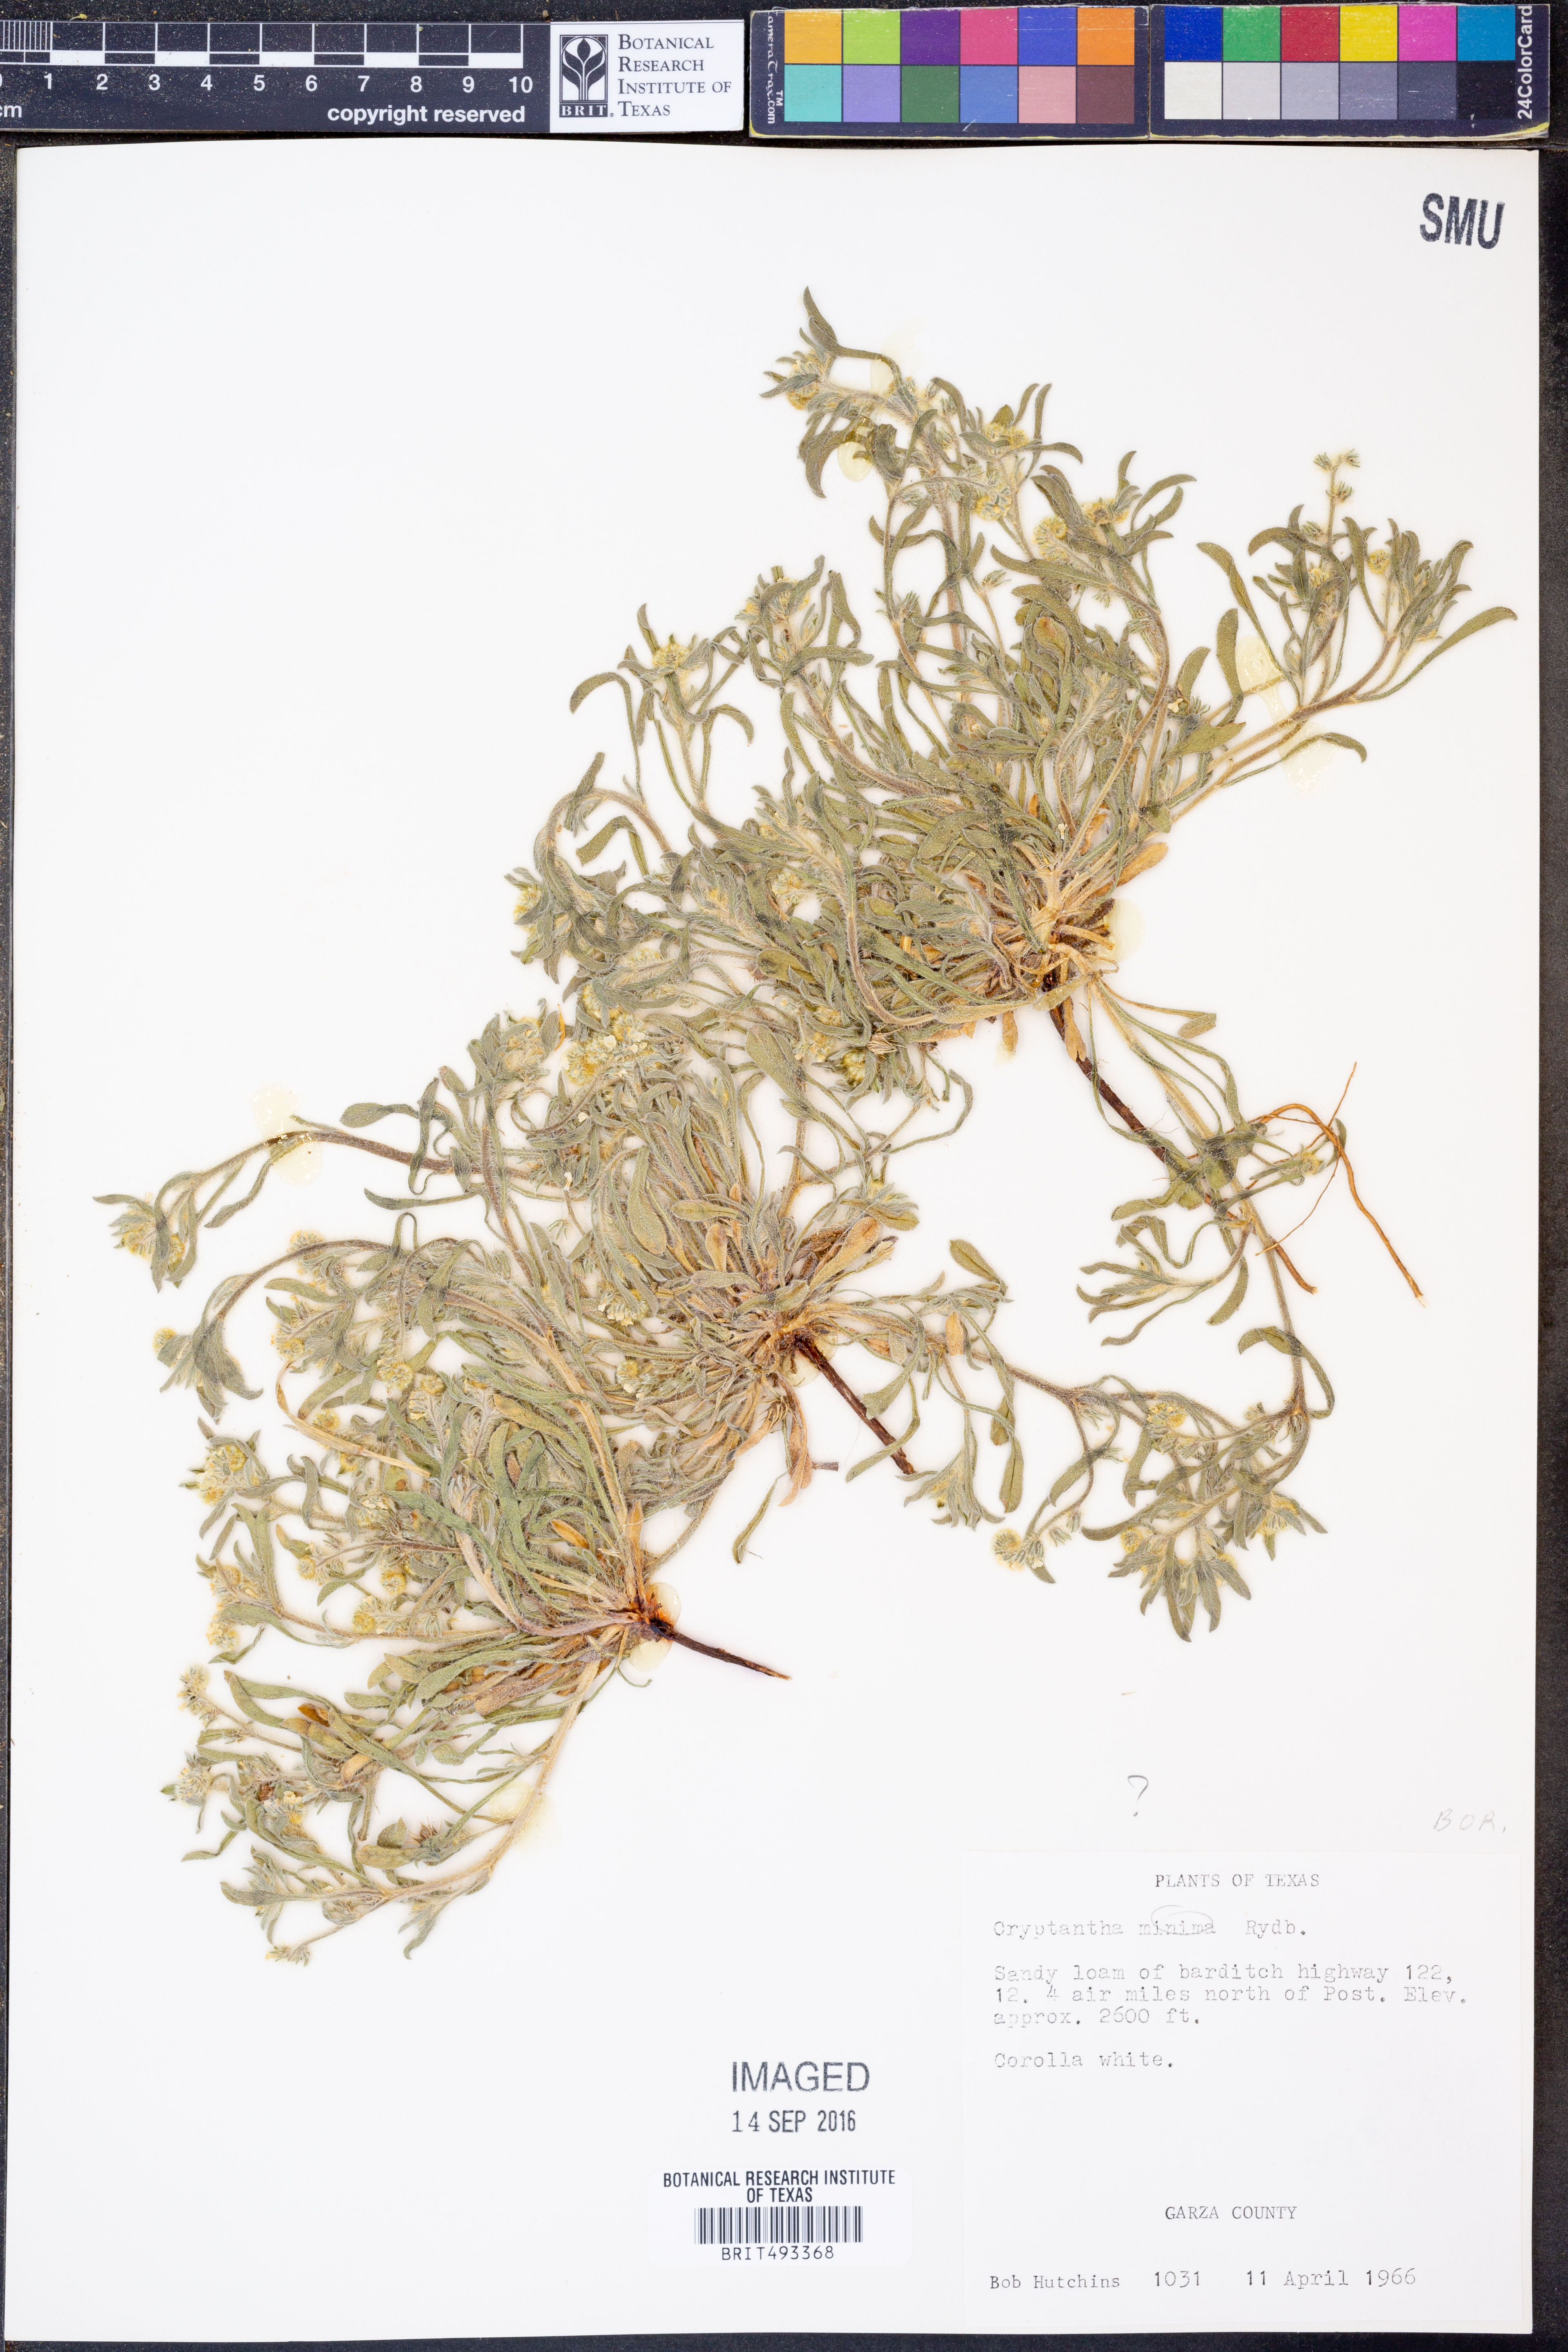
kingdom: Plantae
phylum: Tracheophyta
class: Magnoliopsida
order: Boraginales
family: Boraginaceae
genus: Cryptantha
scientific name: Cryptantha minima
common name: Little cat's-eye
